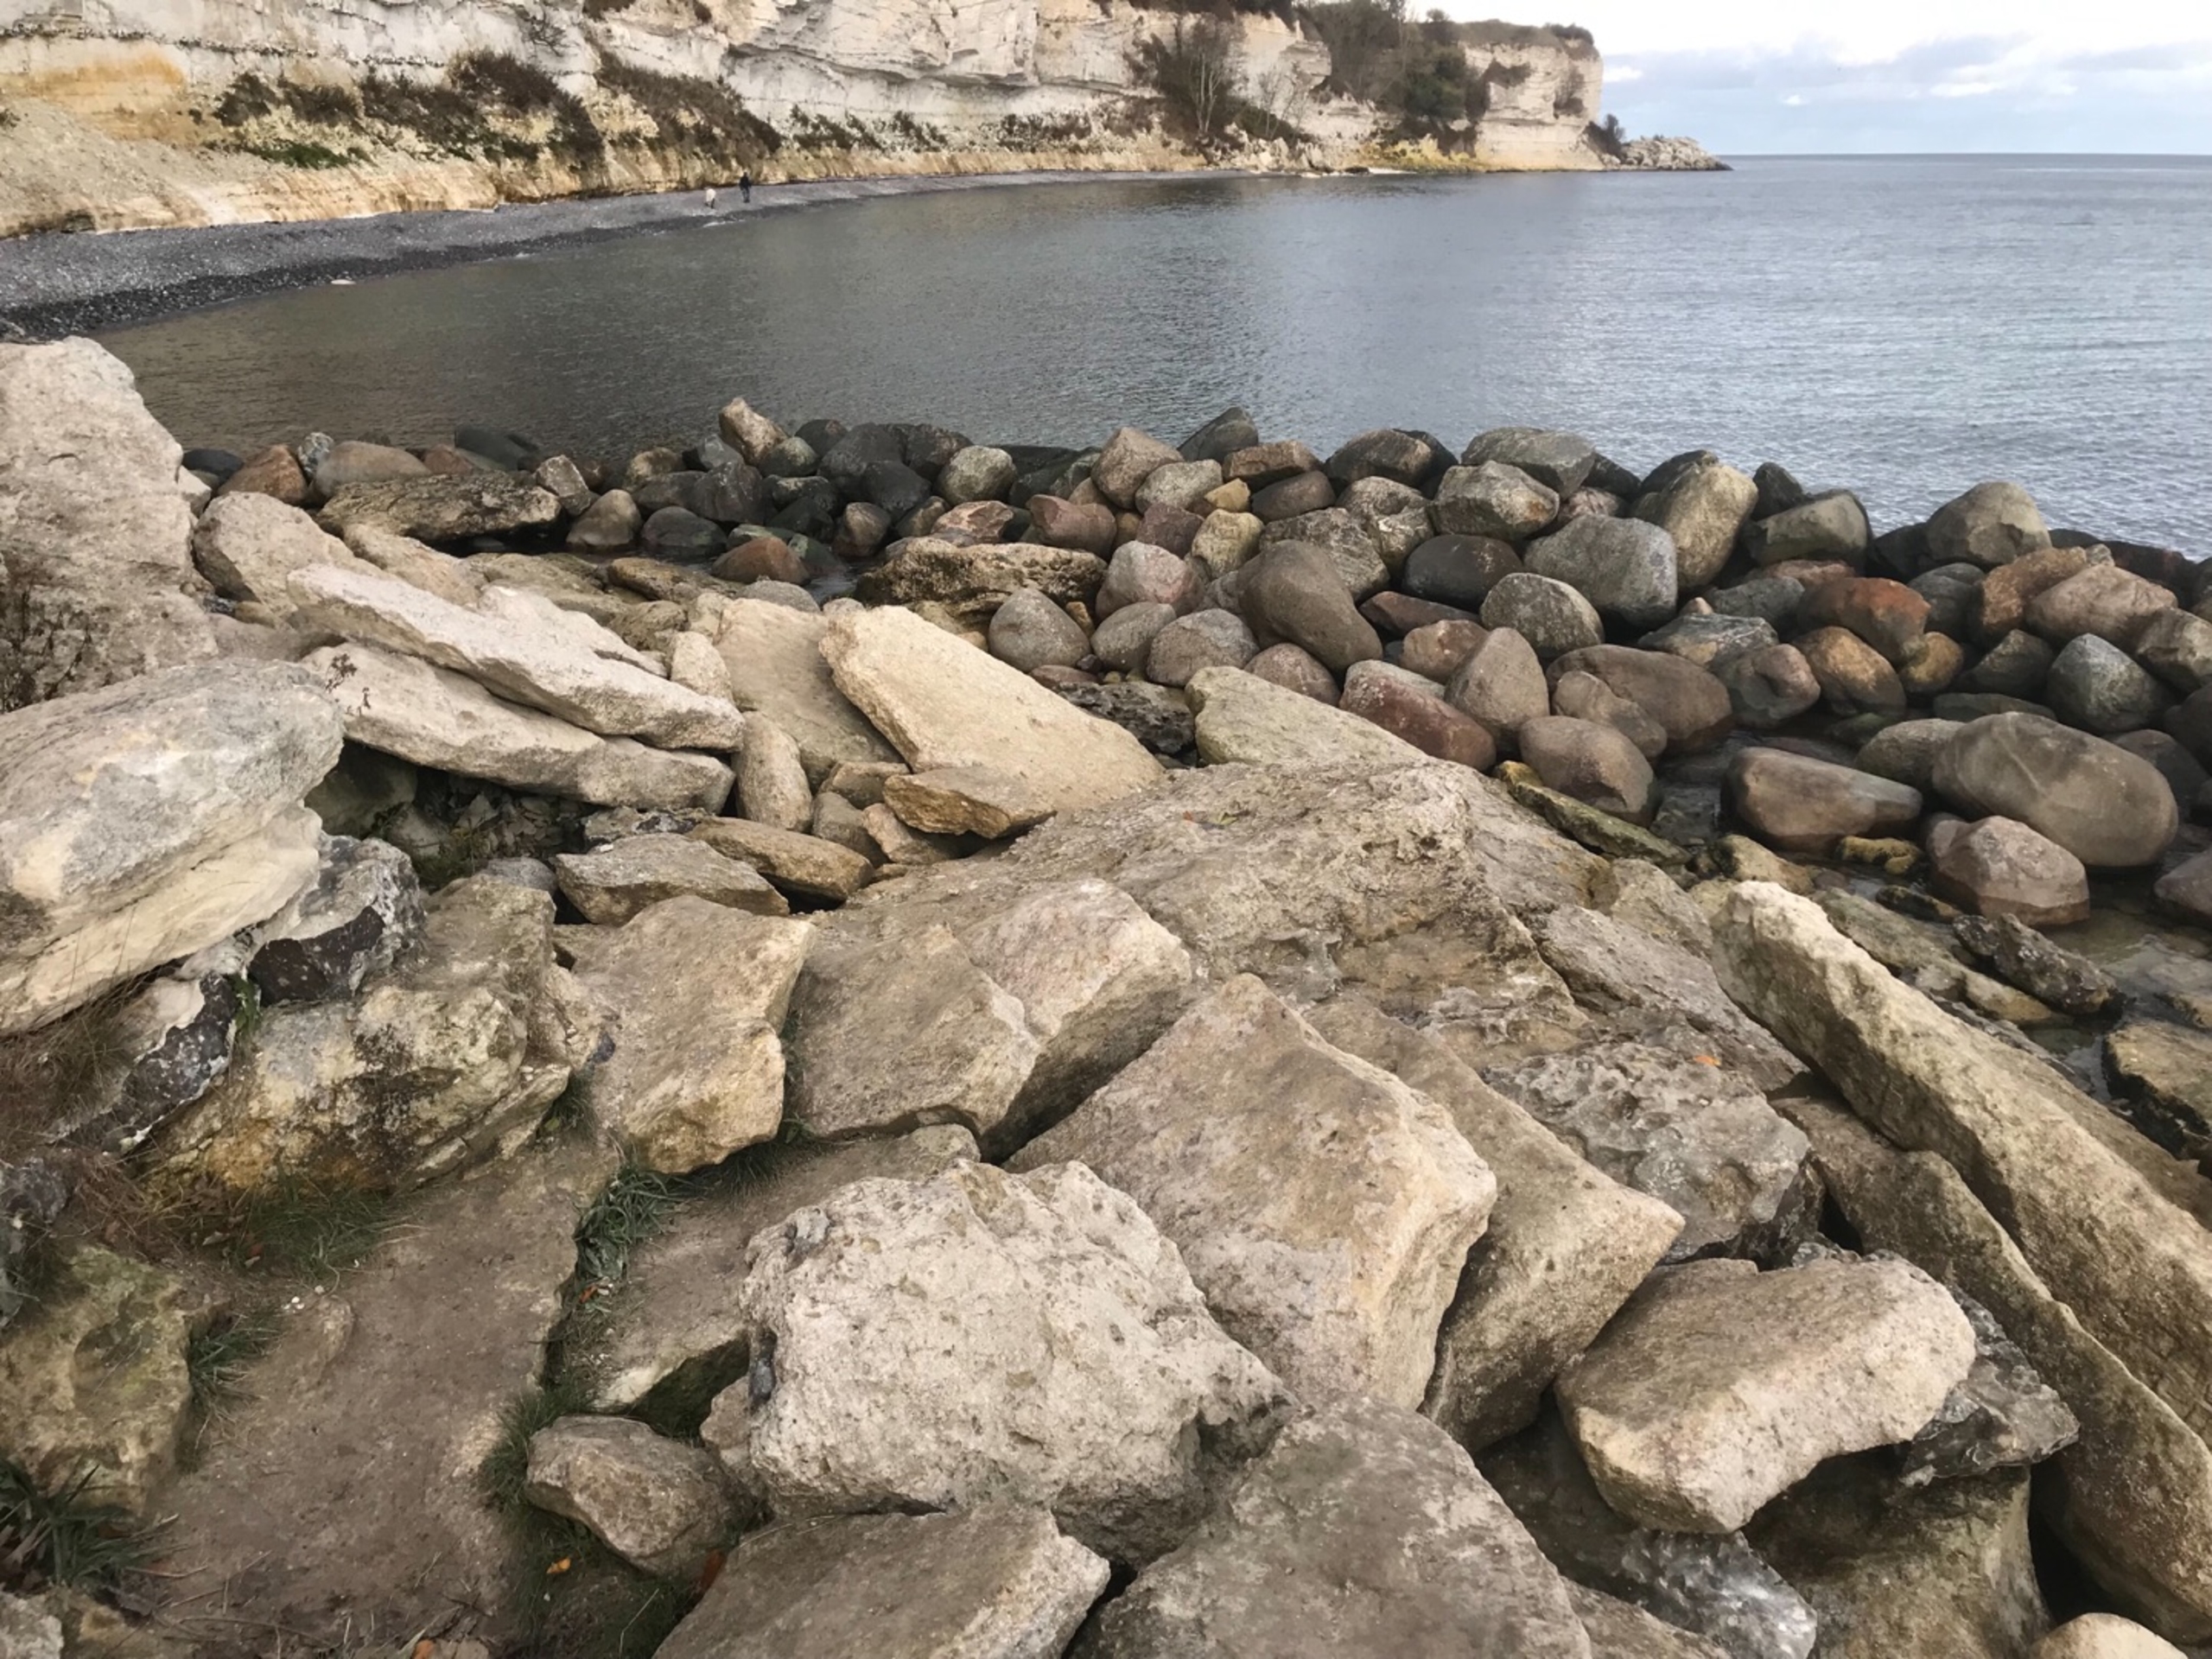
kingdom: Animalia
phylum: Chordata
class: Mammalia
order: Carnivora
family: Mustelidae
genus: Mustela
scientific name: Mustela vison
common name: Mink
